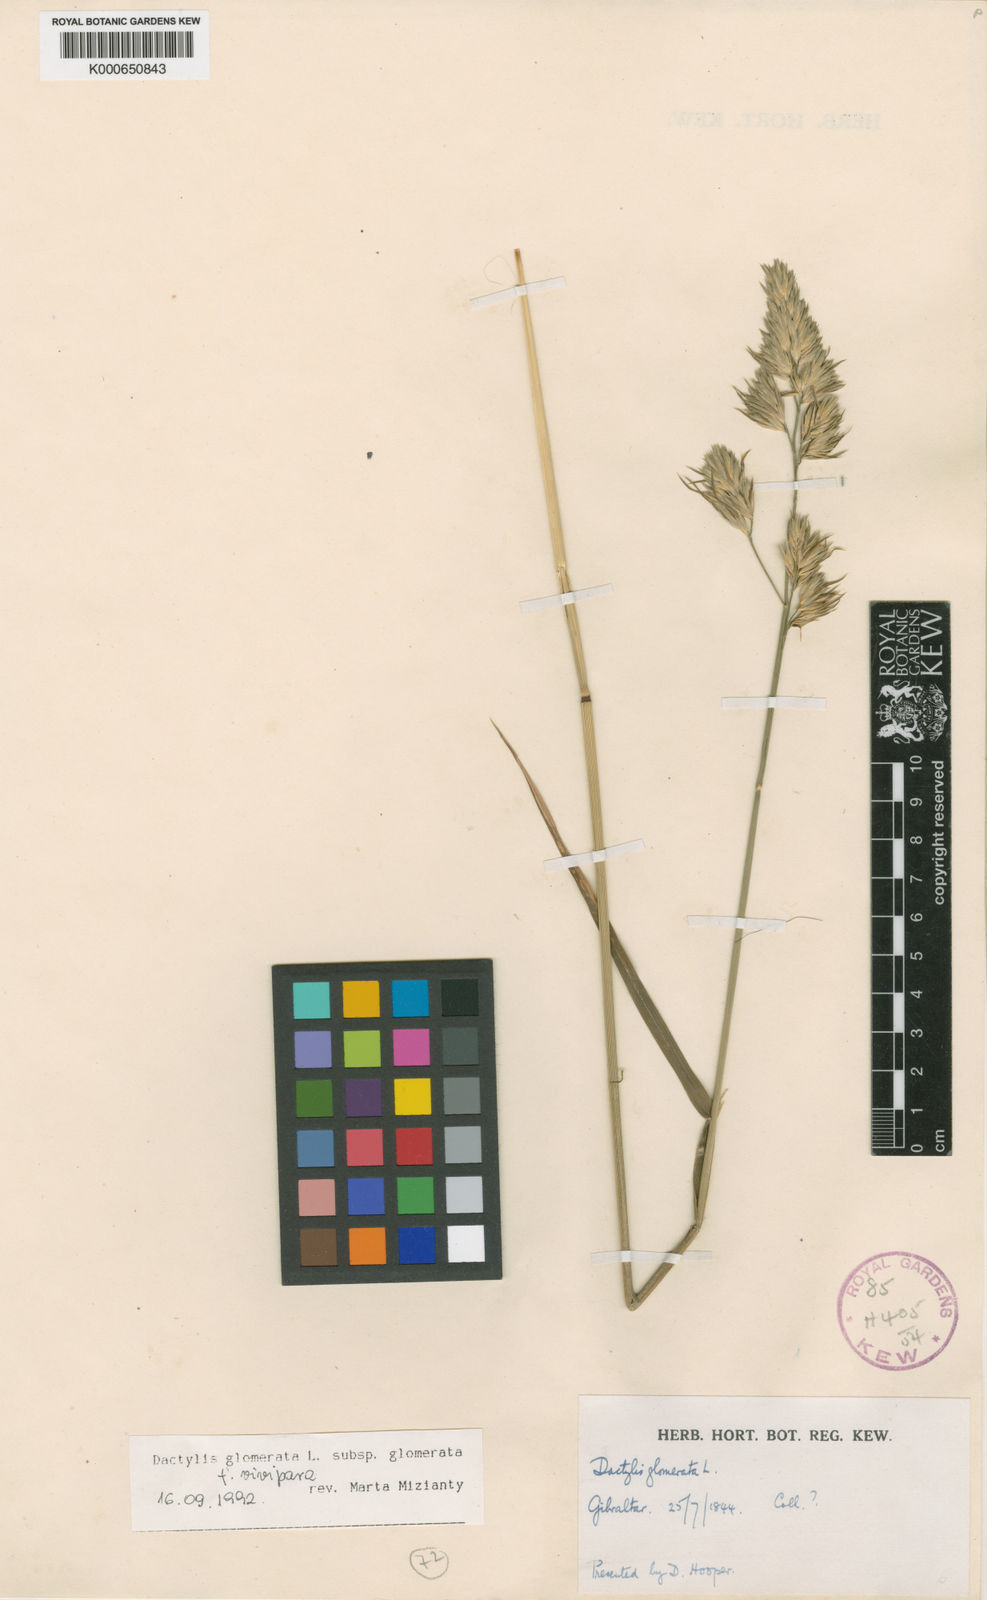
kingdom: Plantae
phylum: Tracheophyta
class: Liliopsida
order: Poales
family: Poaceae
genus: Dactylis
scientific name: Dactylis glomerata
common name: Orchardgrass
